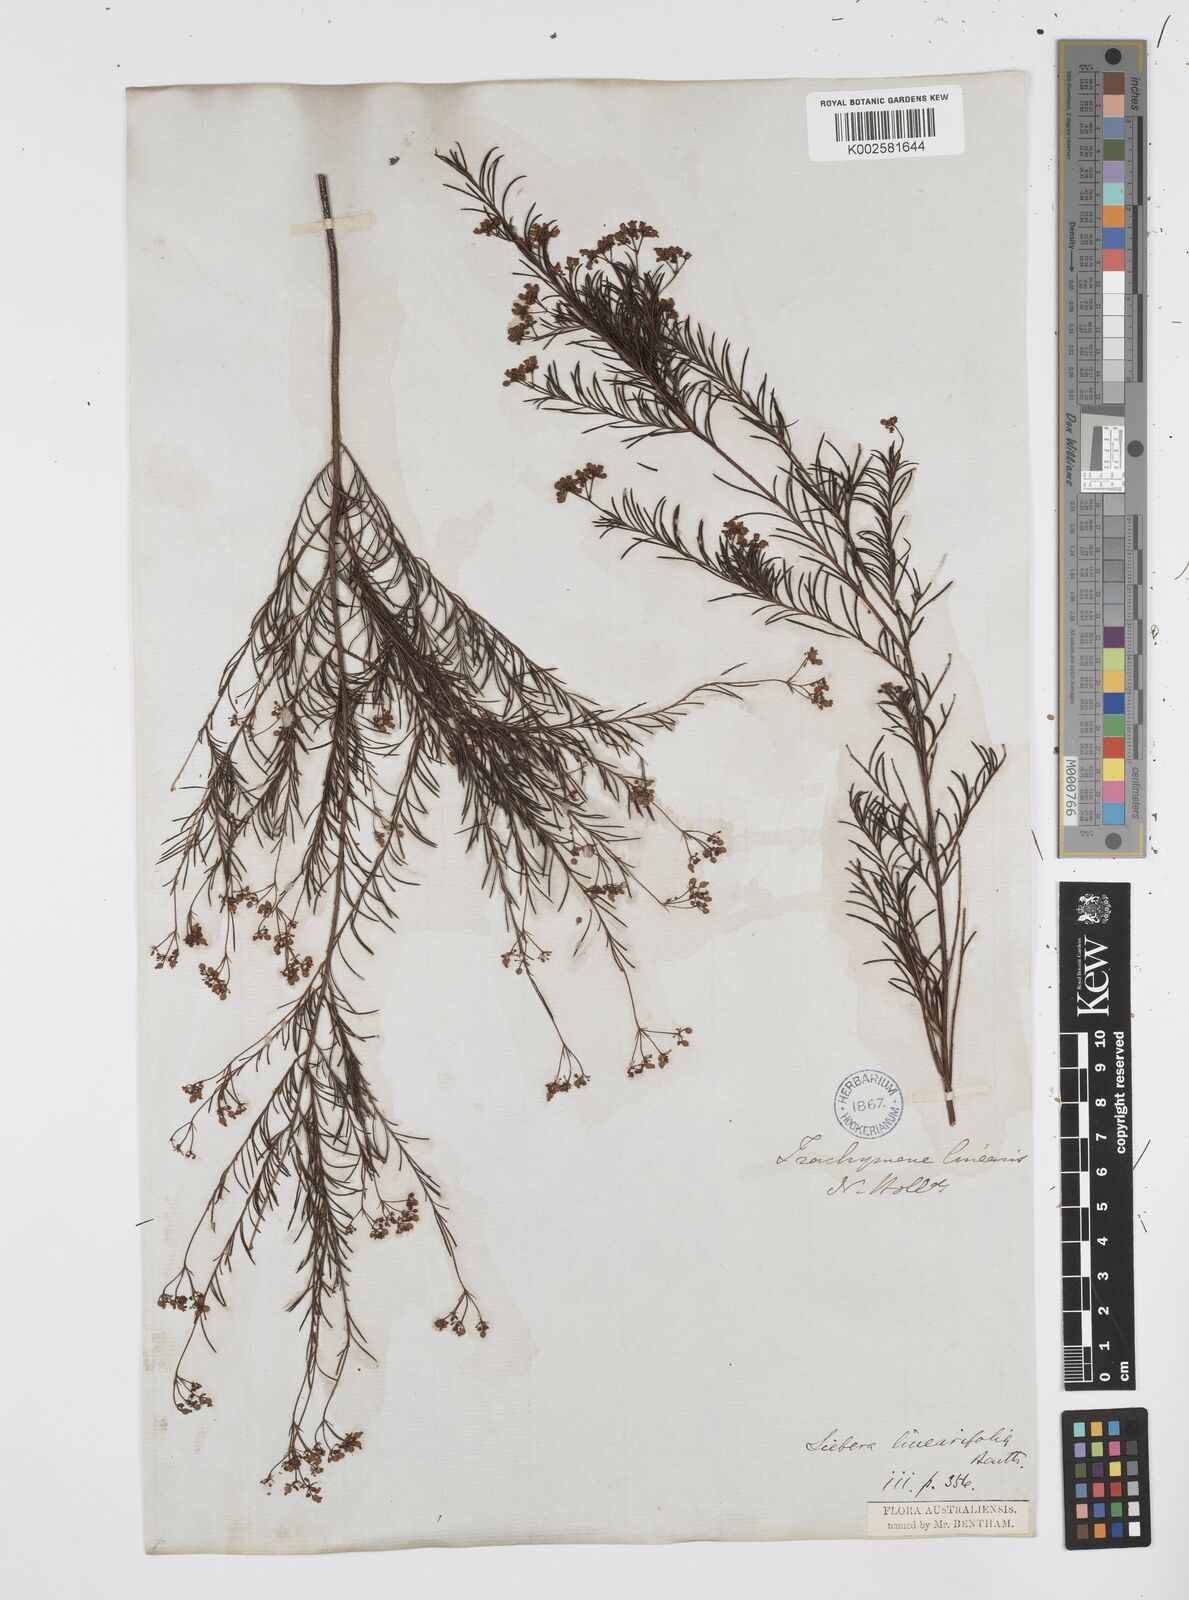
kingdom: Plantae
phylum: Tracheophyta
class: Magnoliopsida
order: Apiales
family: Apiaceae
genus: Platysace
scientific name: Platysace linearifolia
